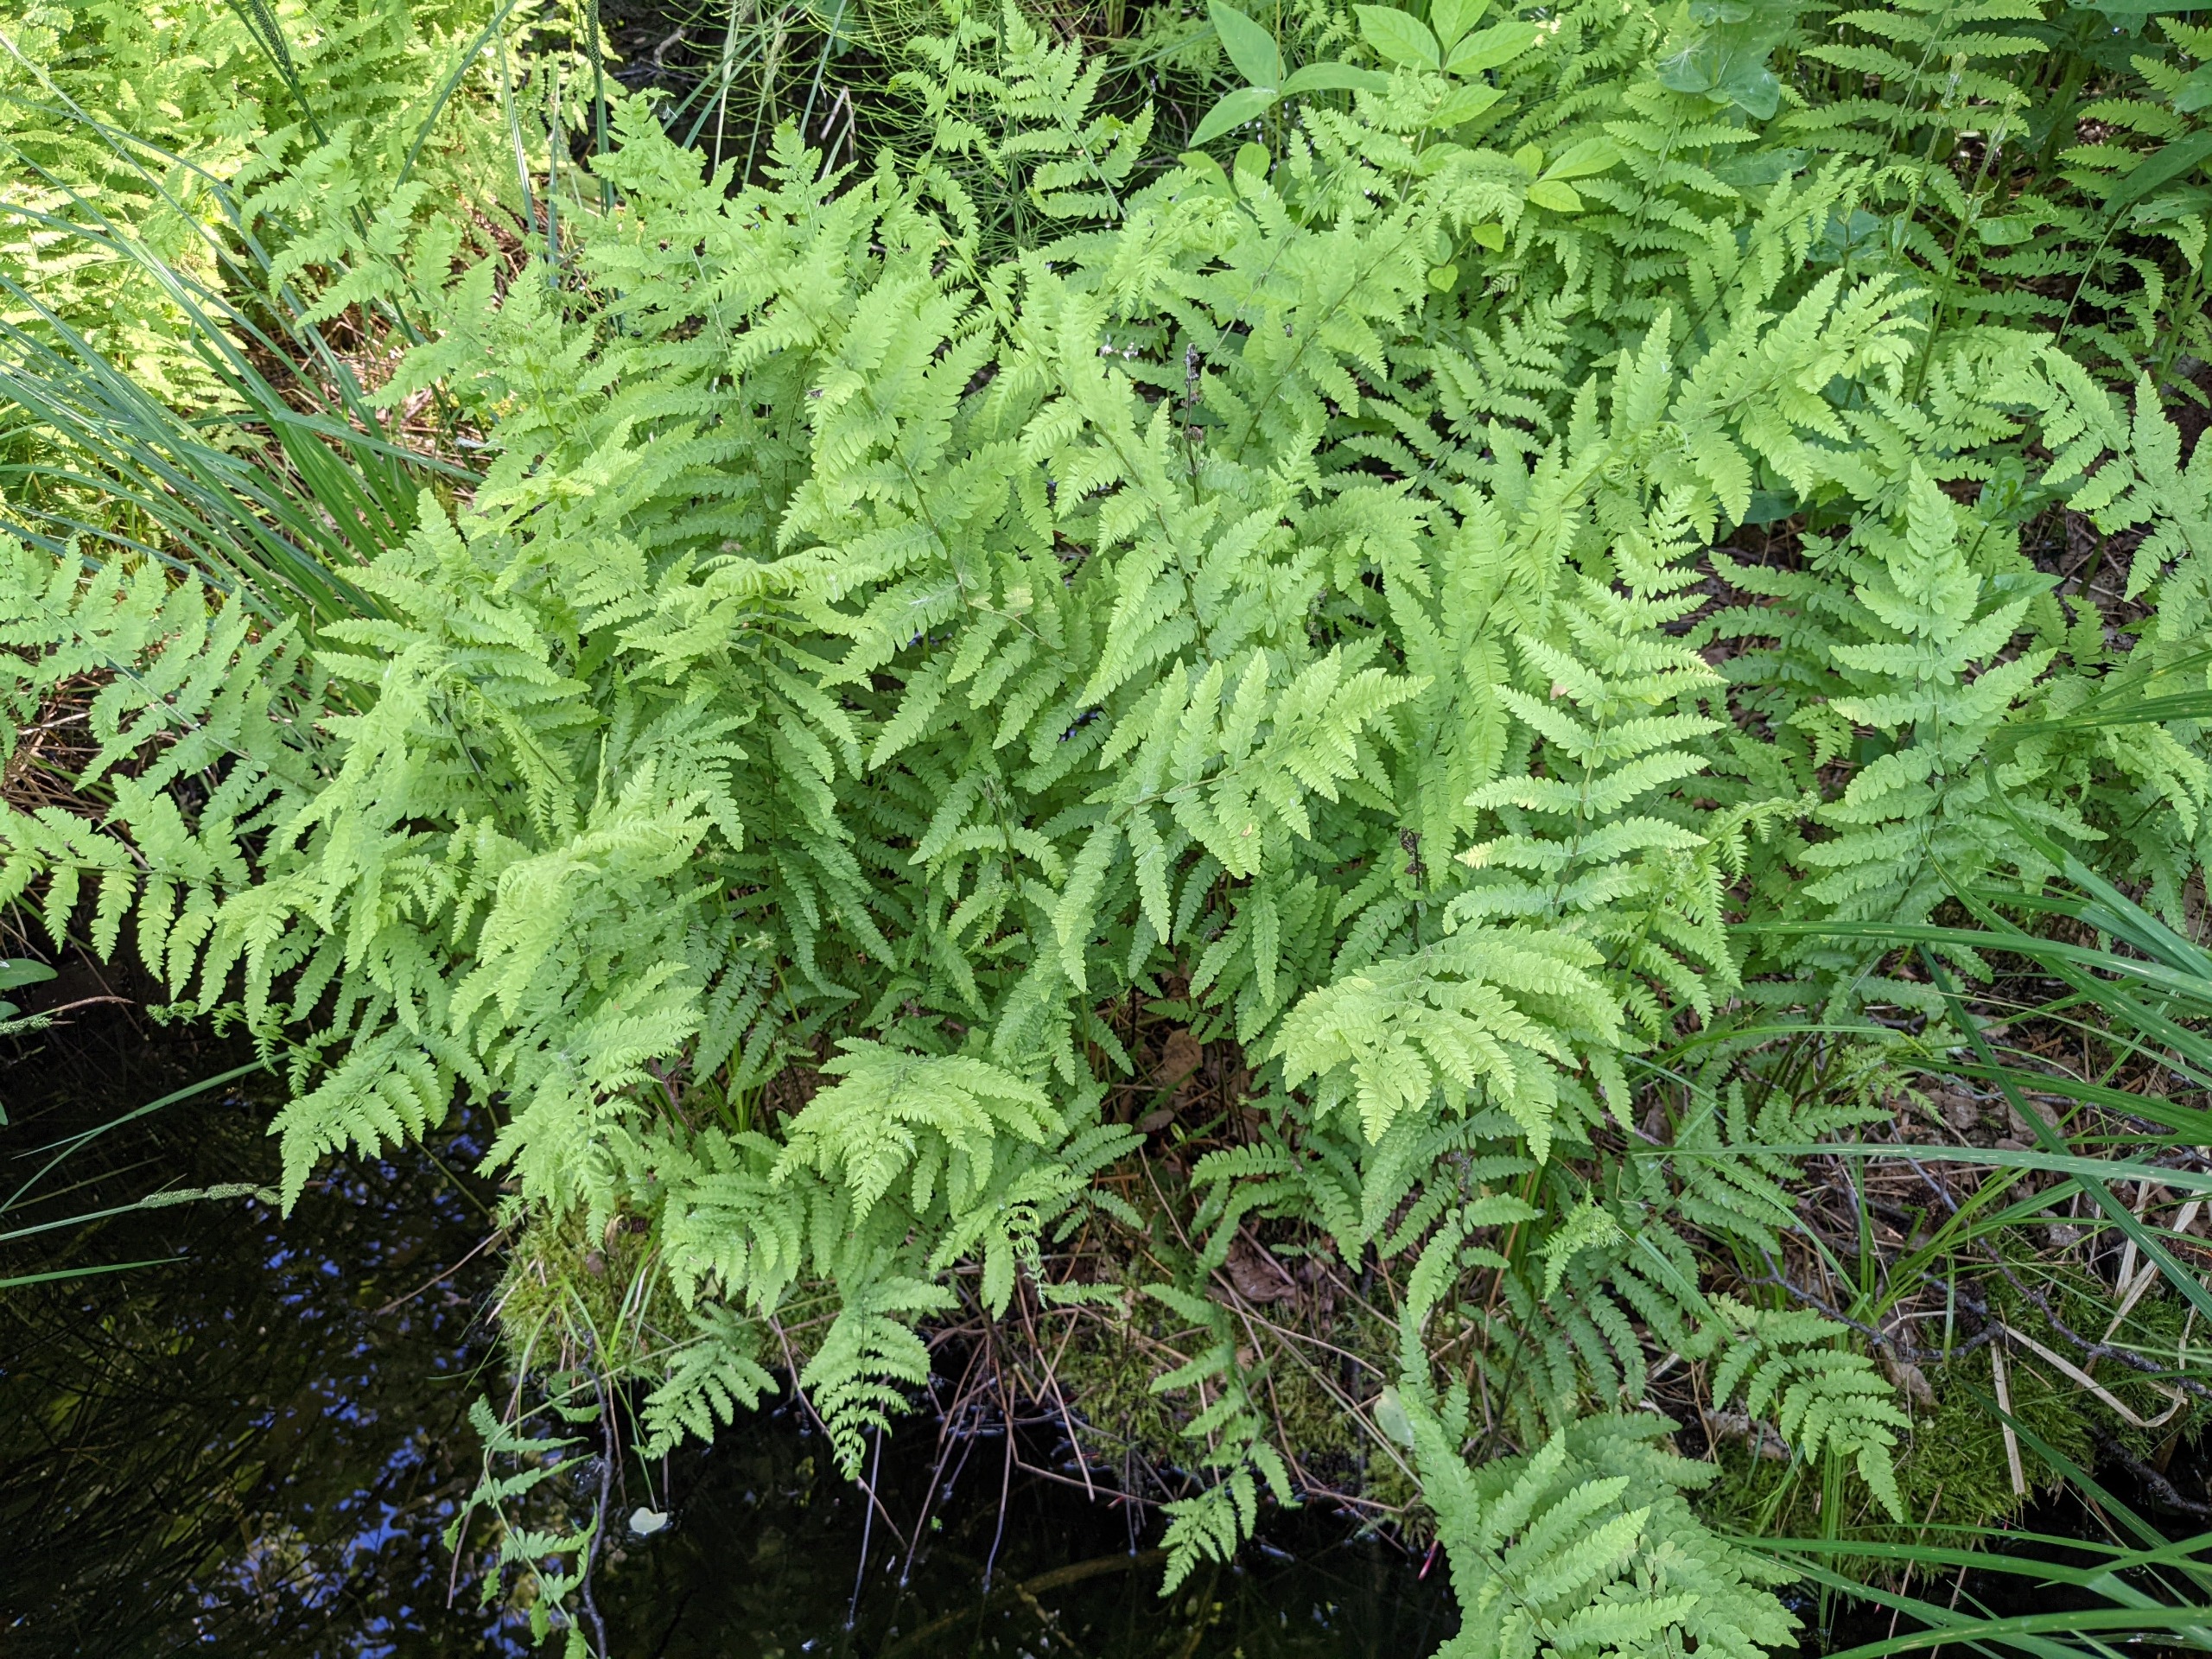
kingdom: Plantae
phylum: Tracheophyta
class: Polypodiopsida
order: Polypodiales
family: Thelypteridaceae
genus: Thelypteris
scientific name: Thelypteris palustris
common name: Kærmangeløv
